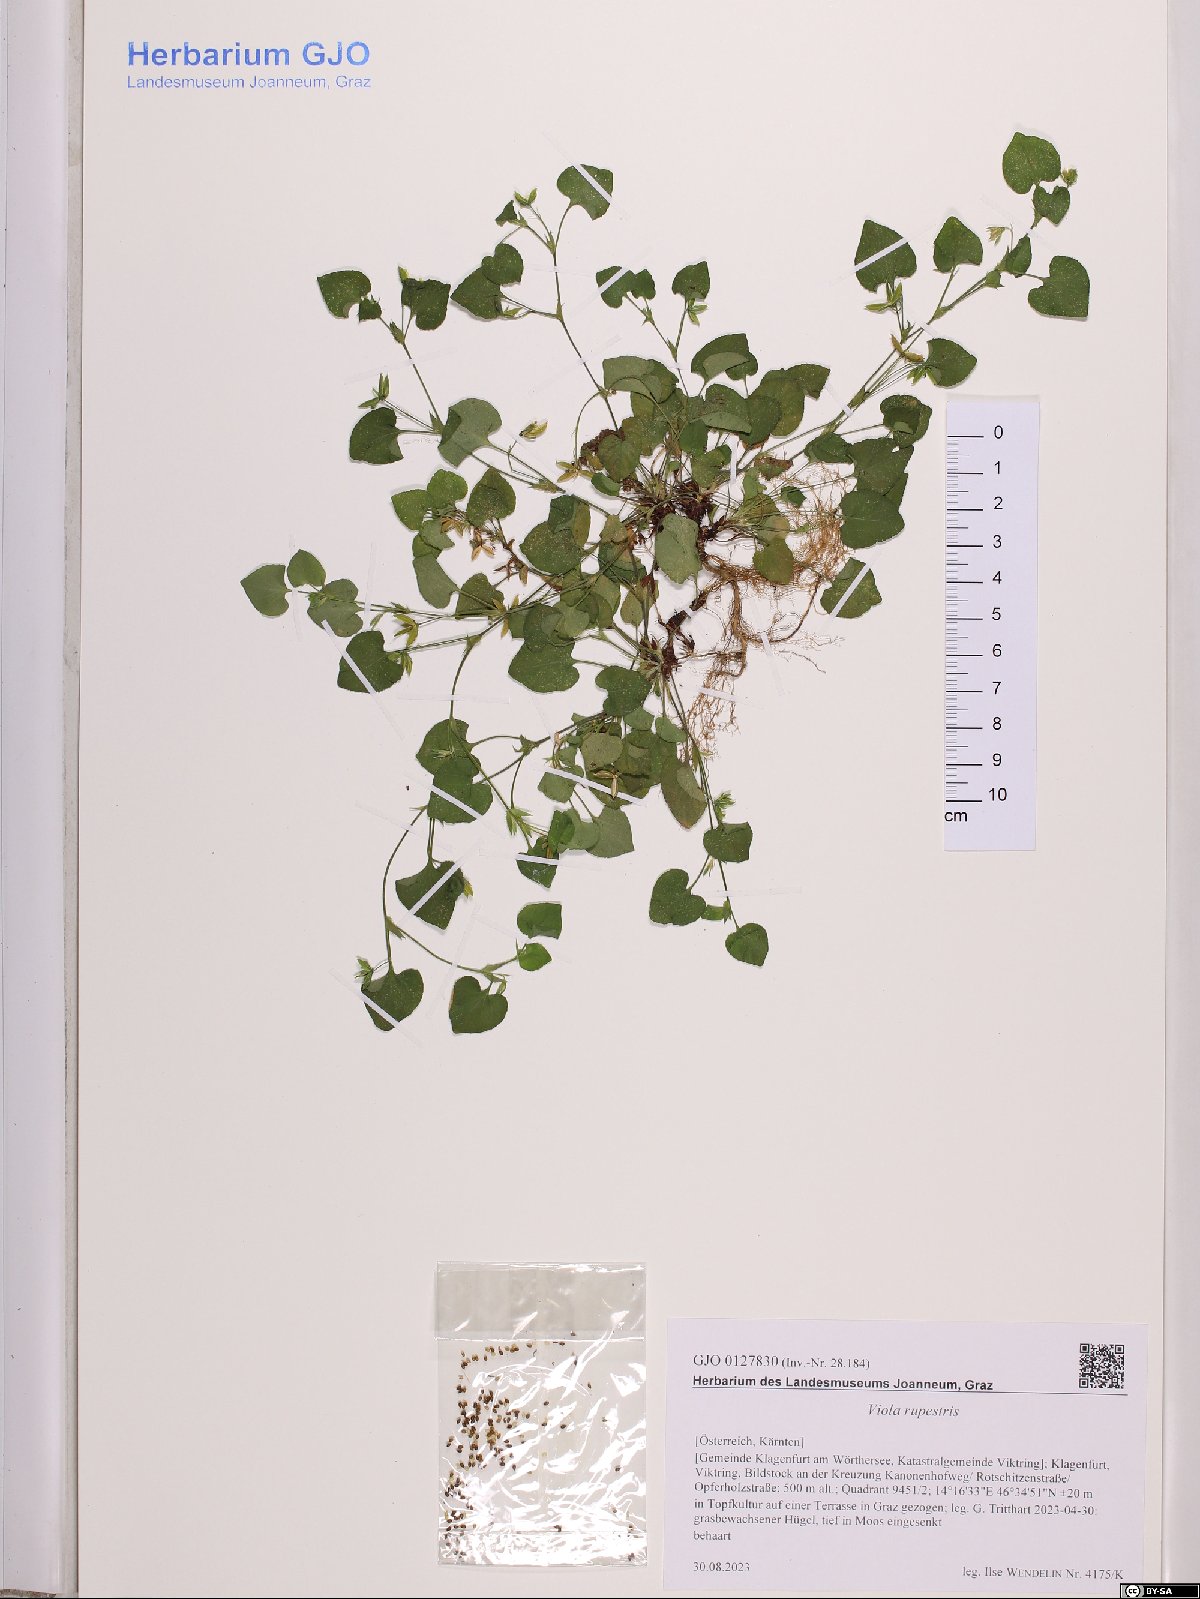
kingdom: Plantae
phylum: Tracheophyta
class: Magnoliopsida
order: Malpighiales
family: Violaceae
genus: Viola
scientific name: Viola rupestris
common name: Teesdale violet
